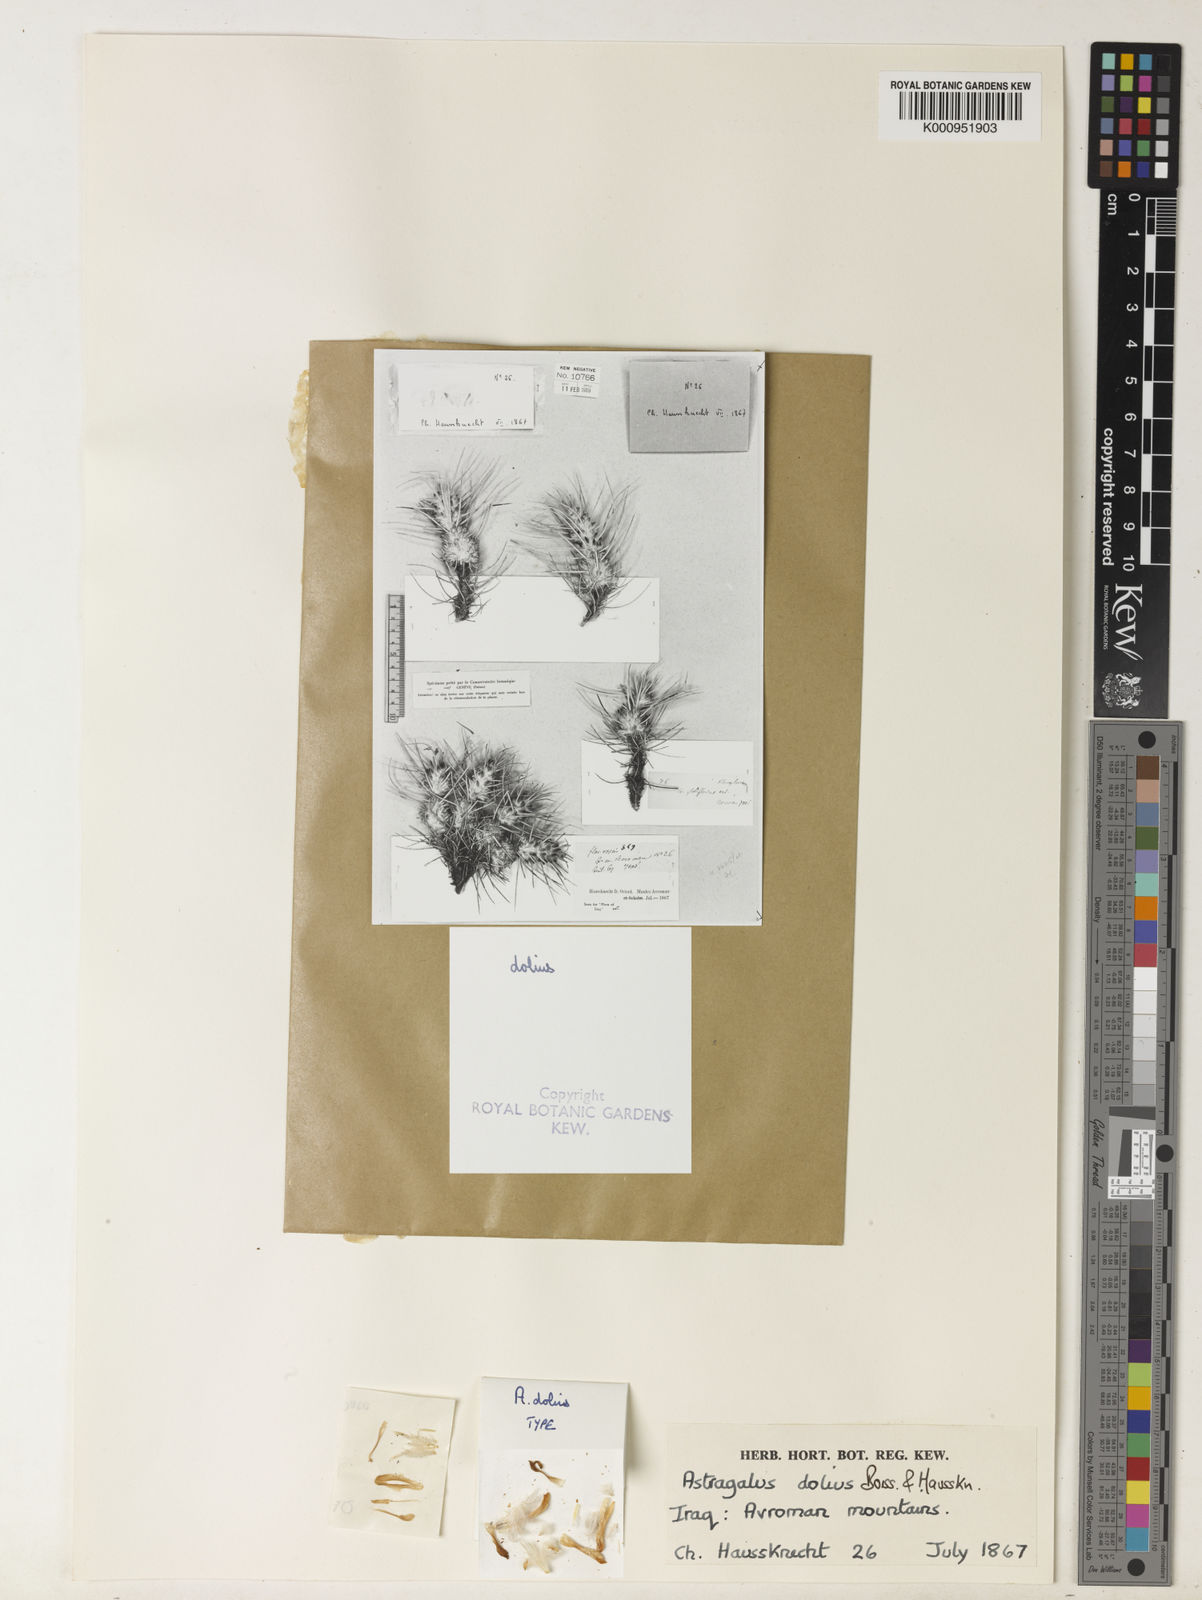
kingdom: Plantae
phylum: Tracheophyta
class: Magnoliopsida
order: Fabales
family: Fabaceae
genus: Astragalus
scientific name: Astragalus strictifolius
